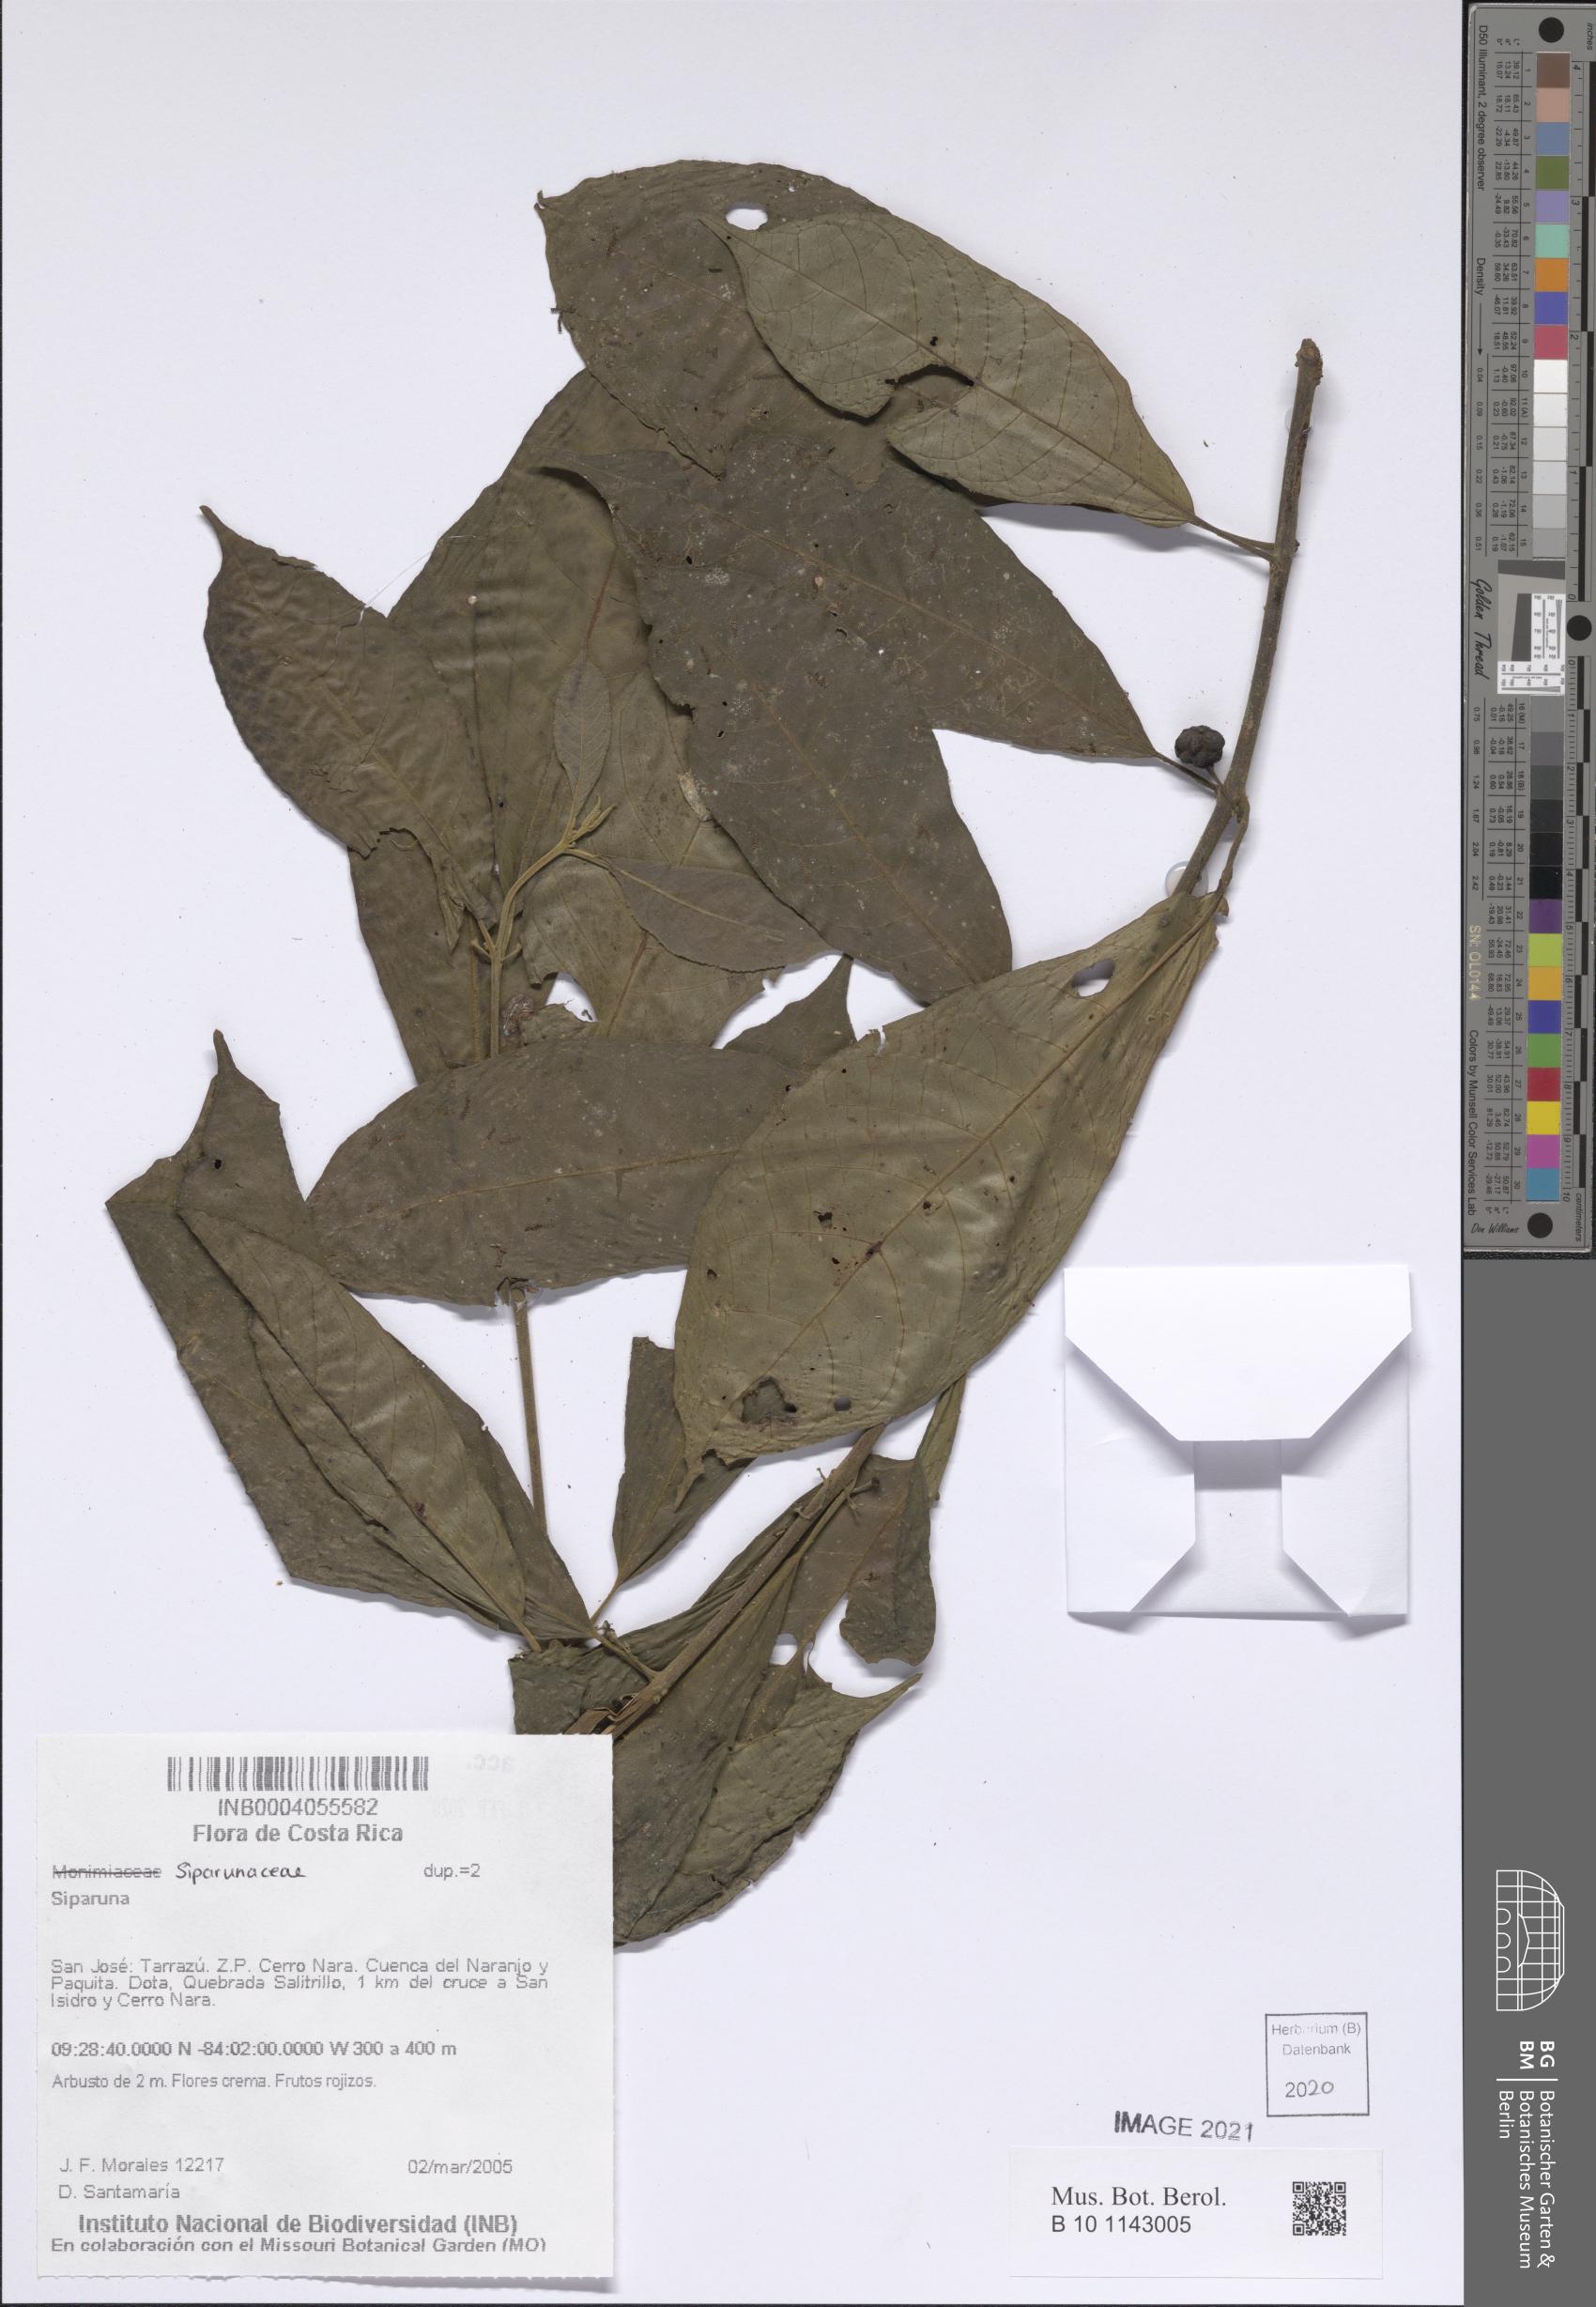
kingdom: Plantae
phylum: Tracheophyta
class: Magnoliopsida
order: Laurales
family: Siparunaceae
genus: Siparuna
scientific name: Siparuna
